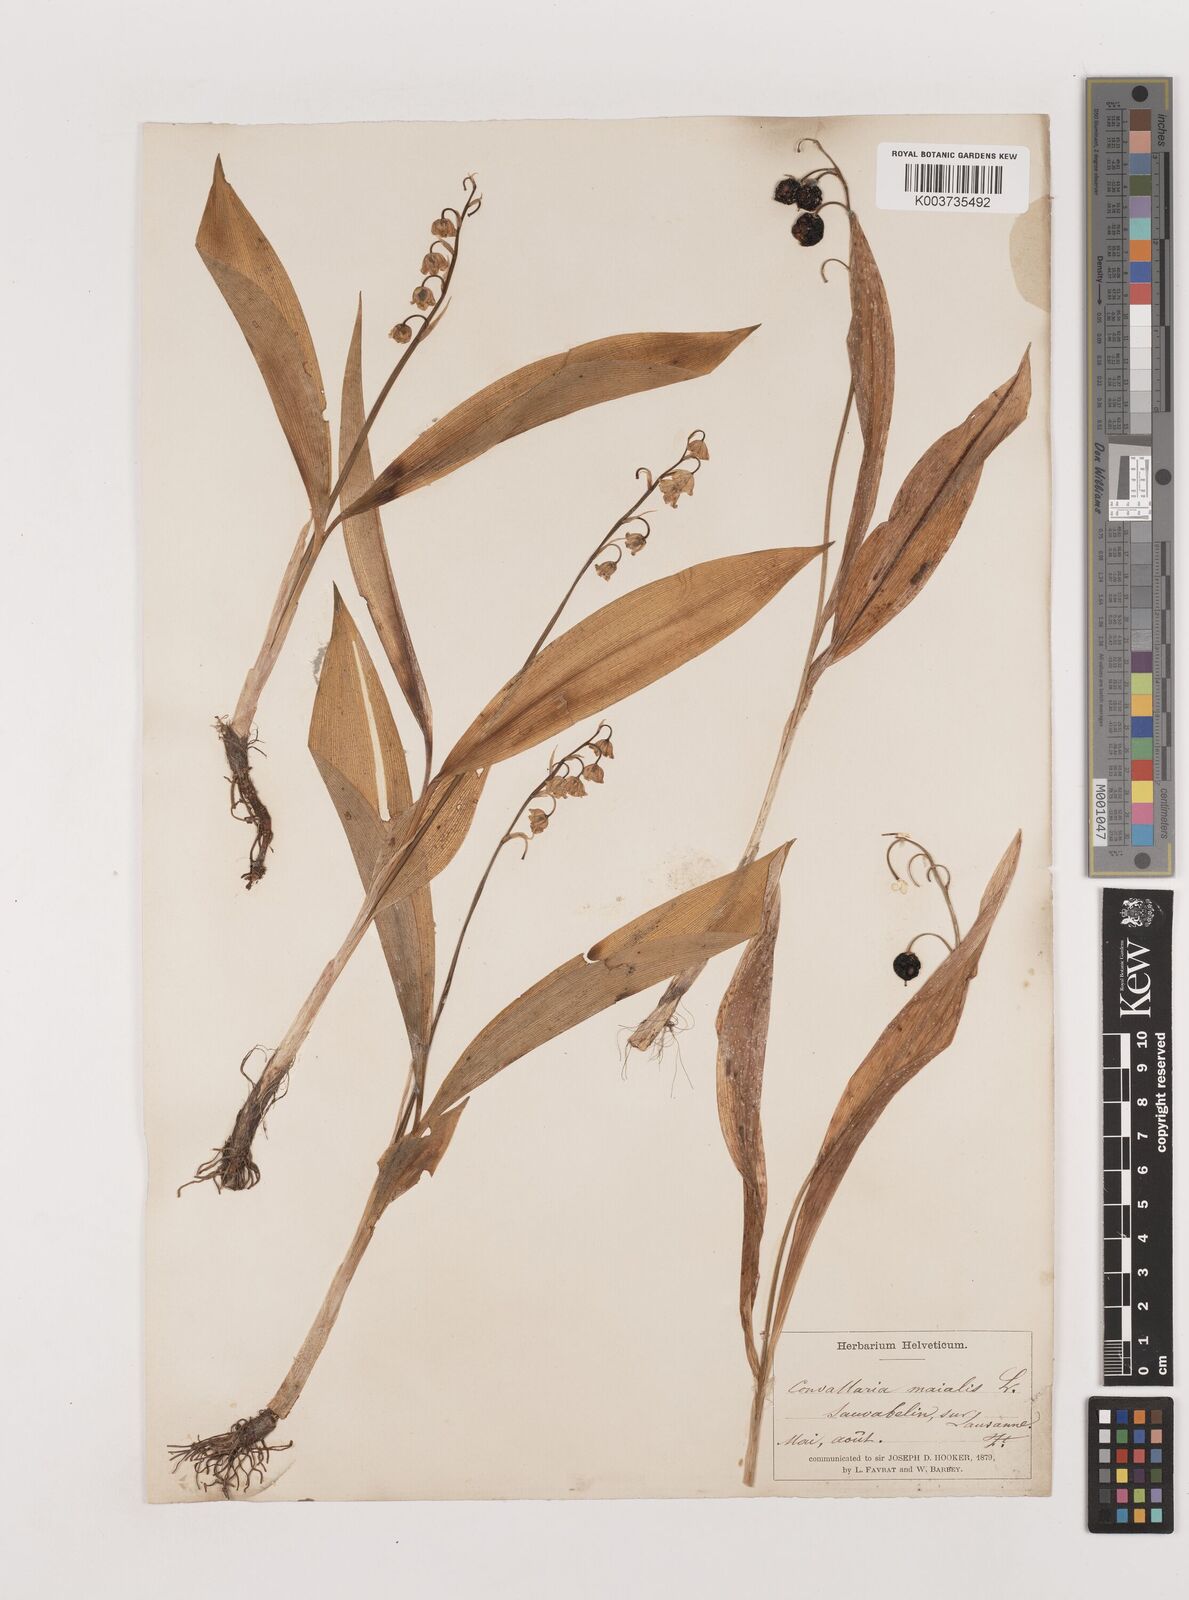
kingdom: Plantae
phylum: Tracheophyta
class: Liliopsida
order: Asparagales
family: Asparagaceae
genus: Convallaria
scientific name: Convallaria majalis
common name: Lily-of-the-valley
